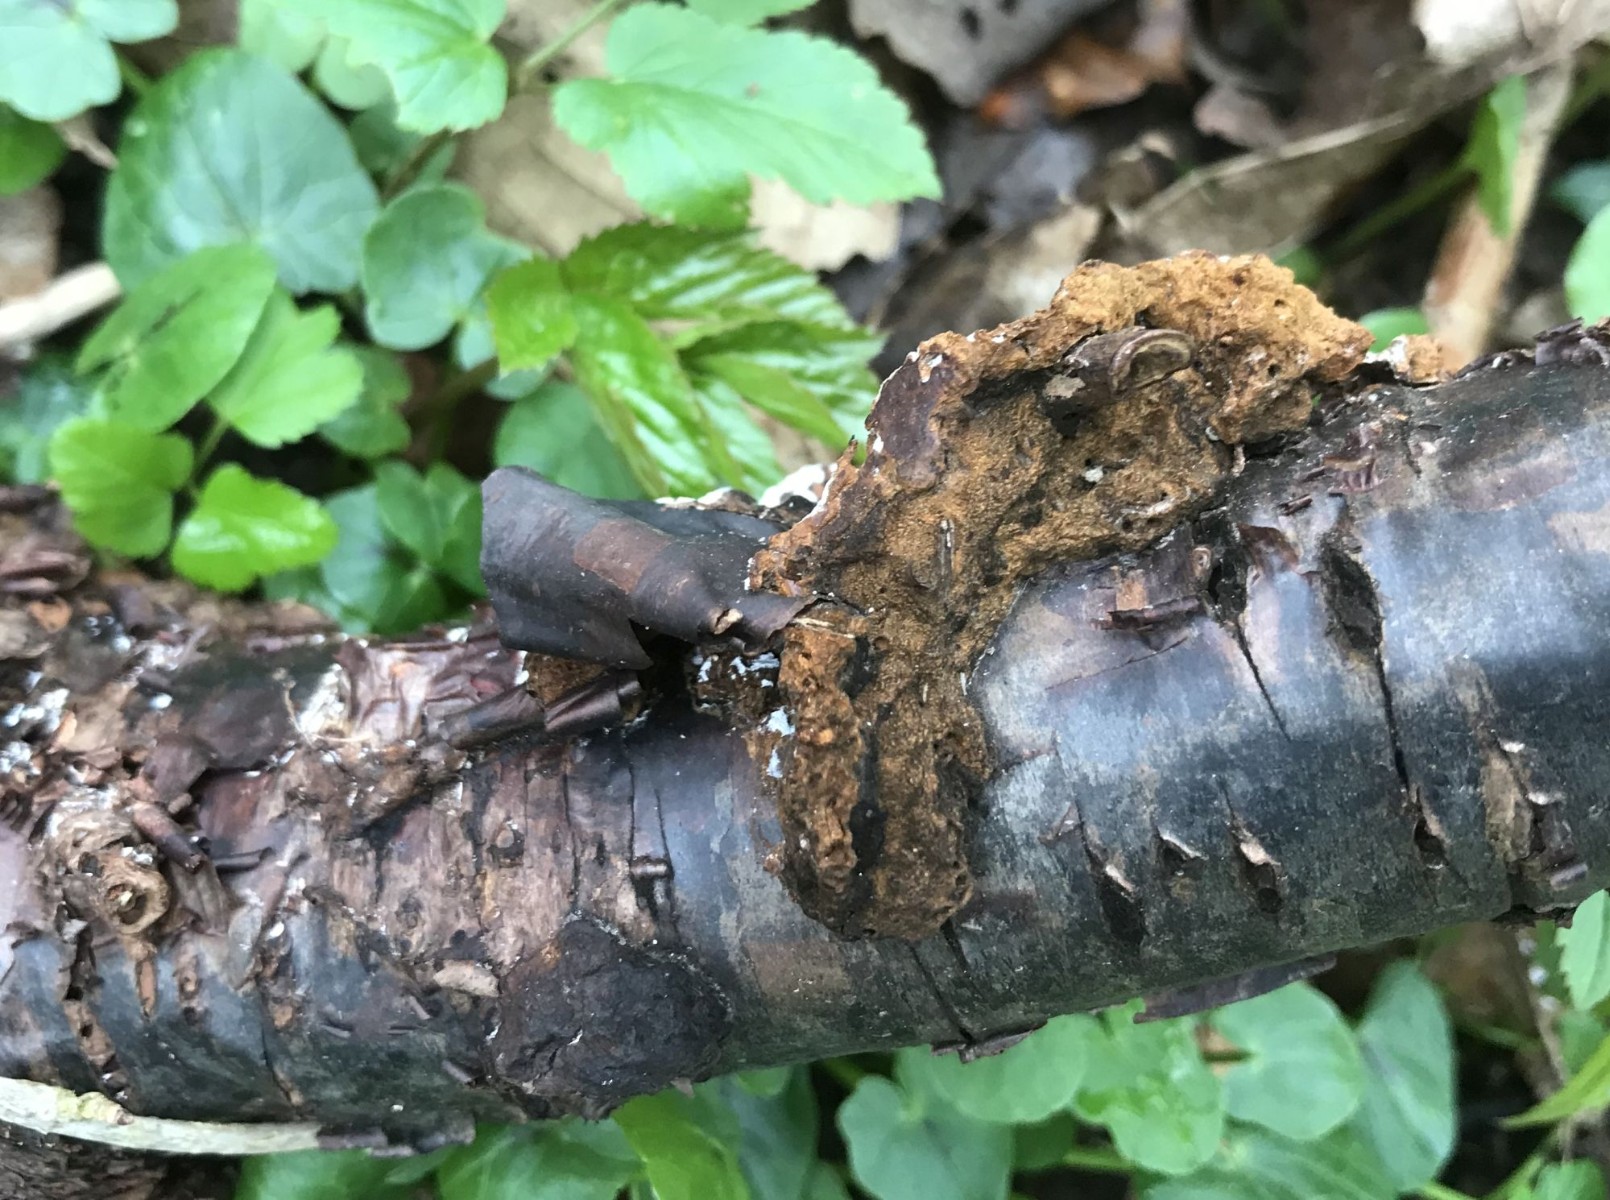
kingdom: Fungi
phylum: Basidiomycota
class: Agaricomycetes
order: Hymenochaetales
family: Hymenochaetaceae
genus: Phylloporia
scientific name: Phylloporia ribis
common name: ribs-ildporesvamp
